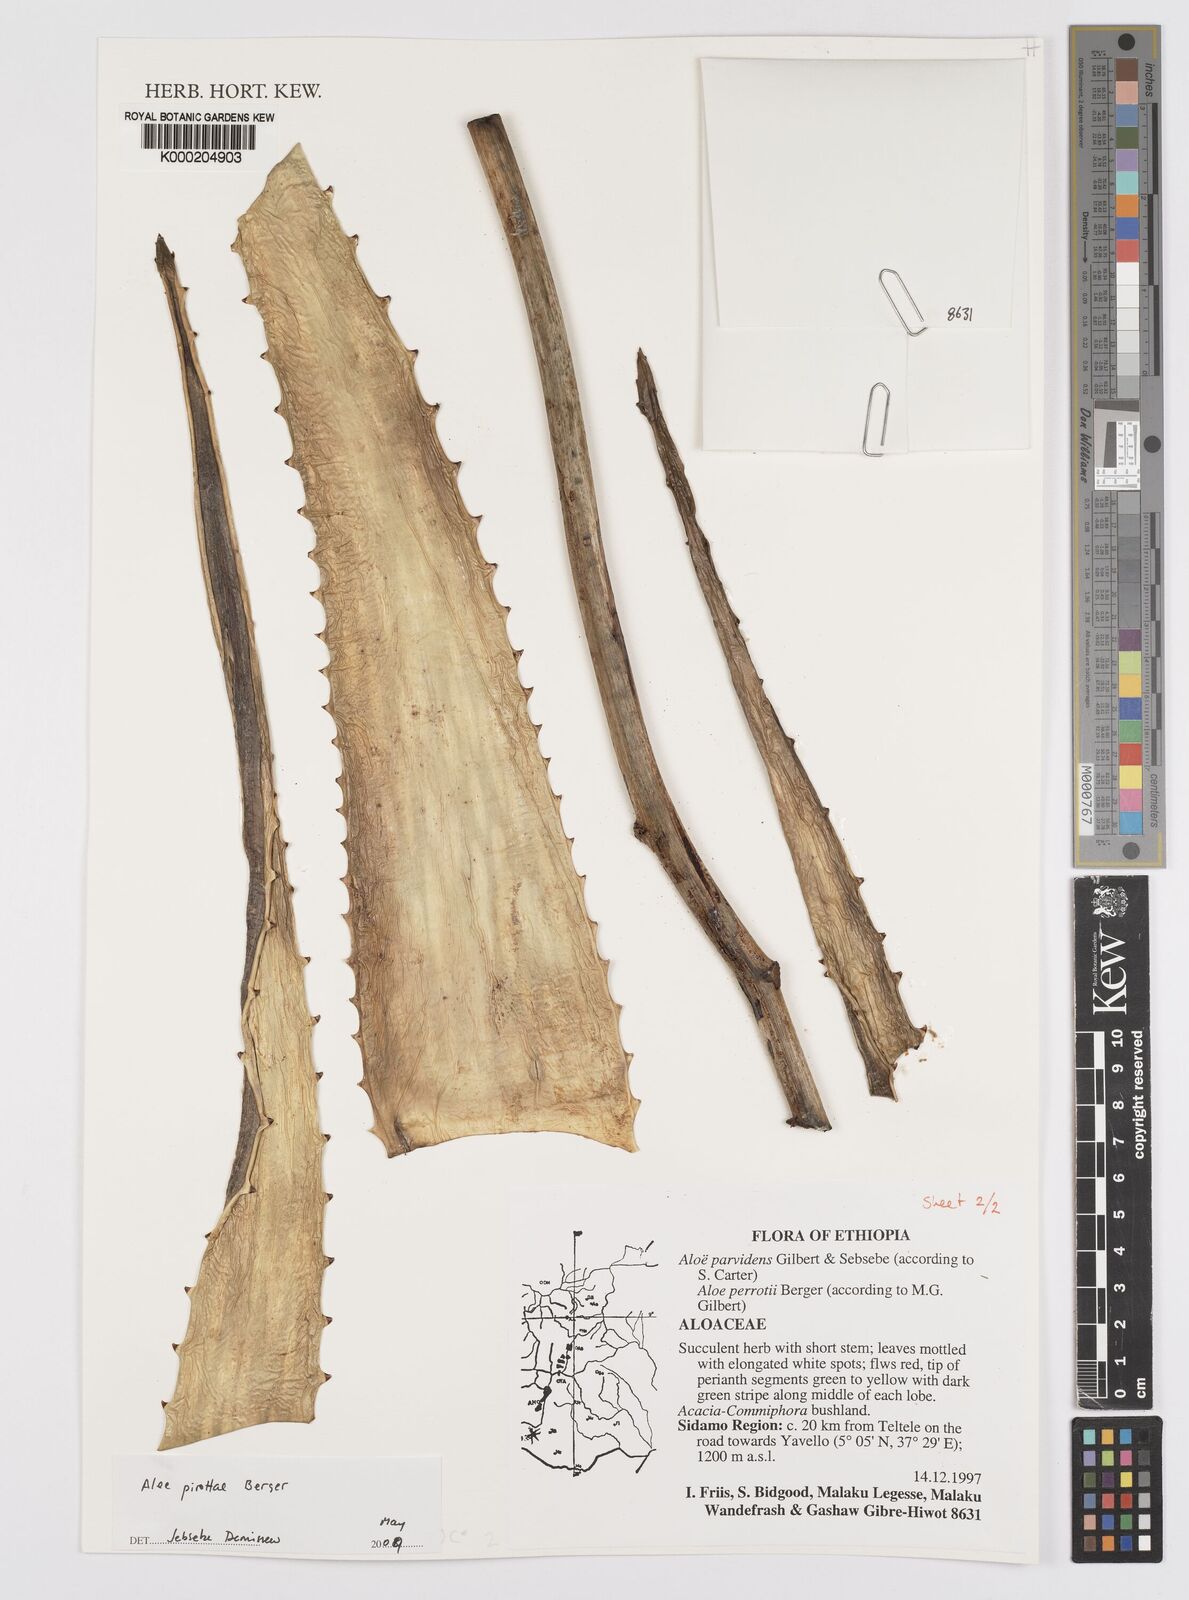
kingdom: Plantae
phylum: Tracheophyta
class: Liliopsida
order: Asparagales
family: Asphodelaceae
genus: Aloe
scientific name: Aloe pirottae
